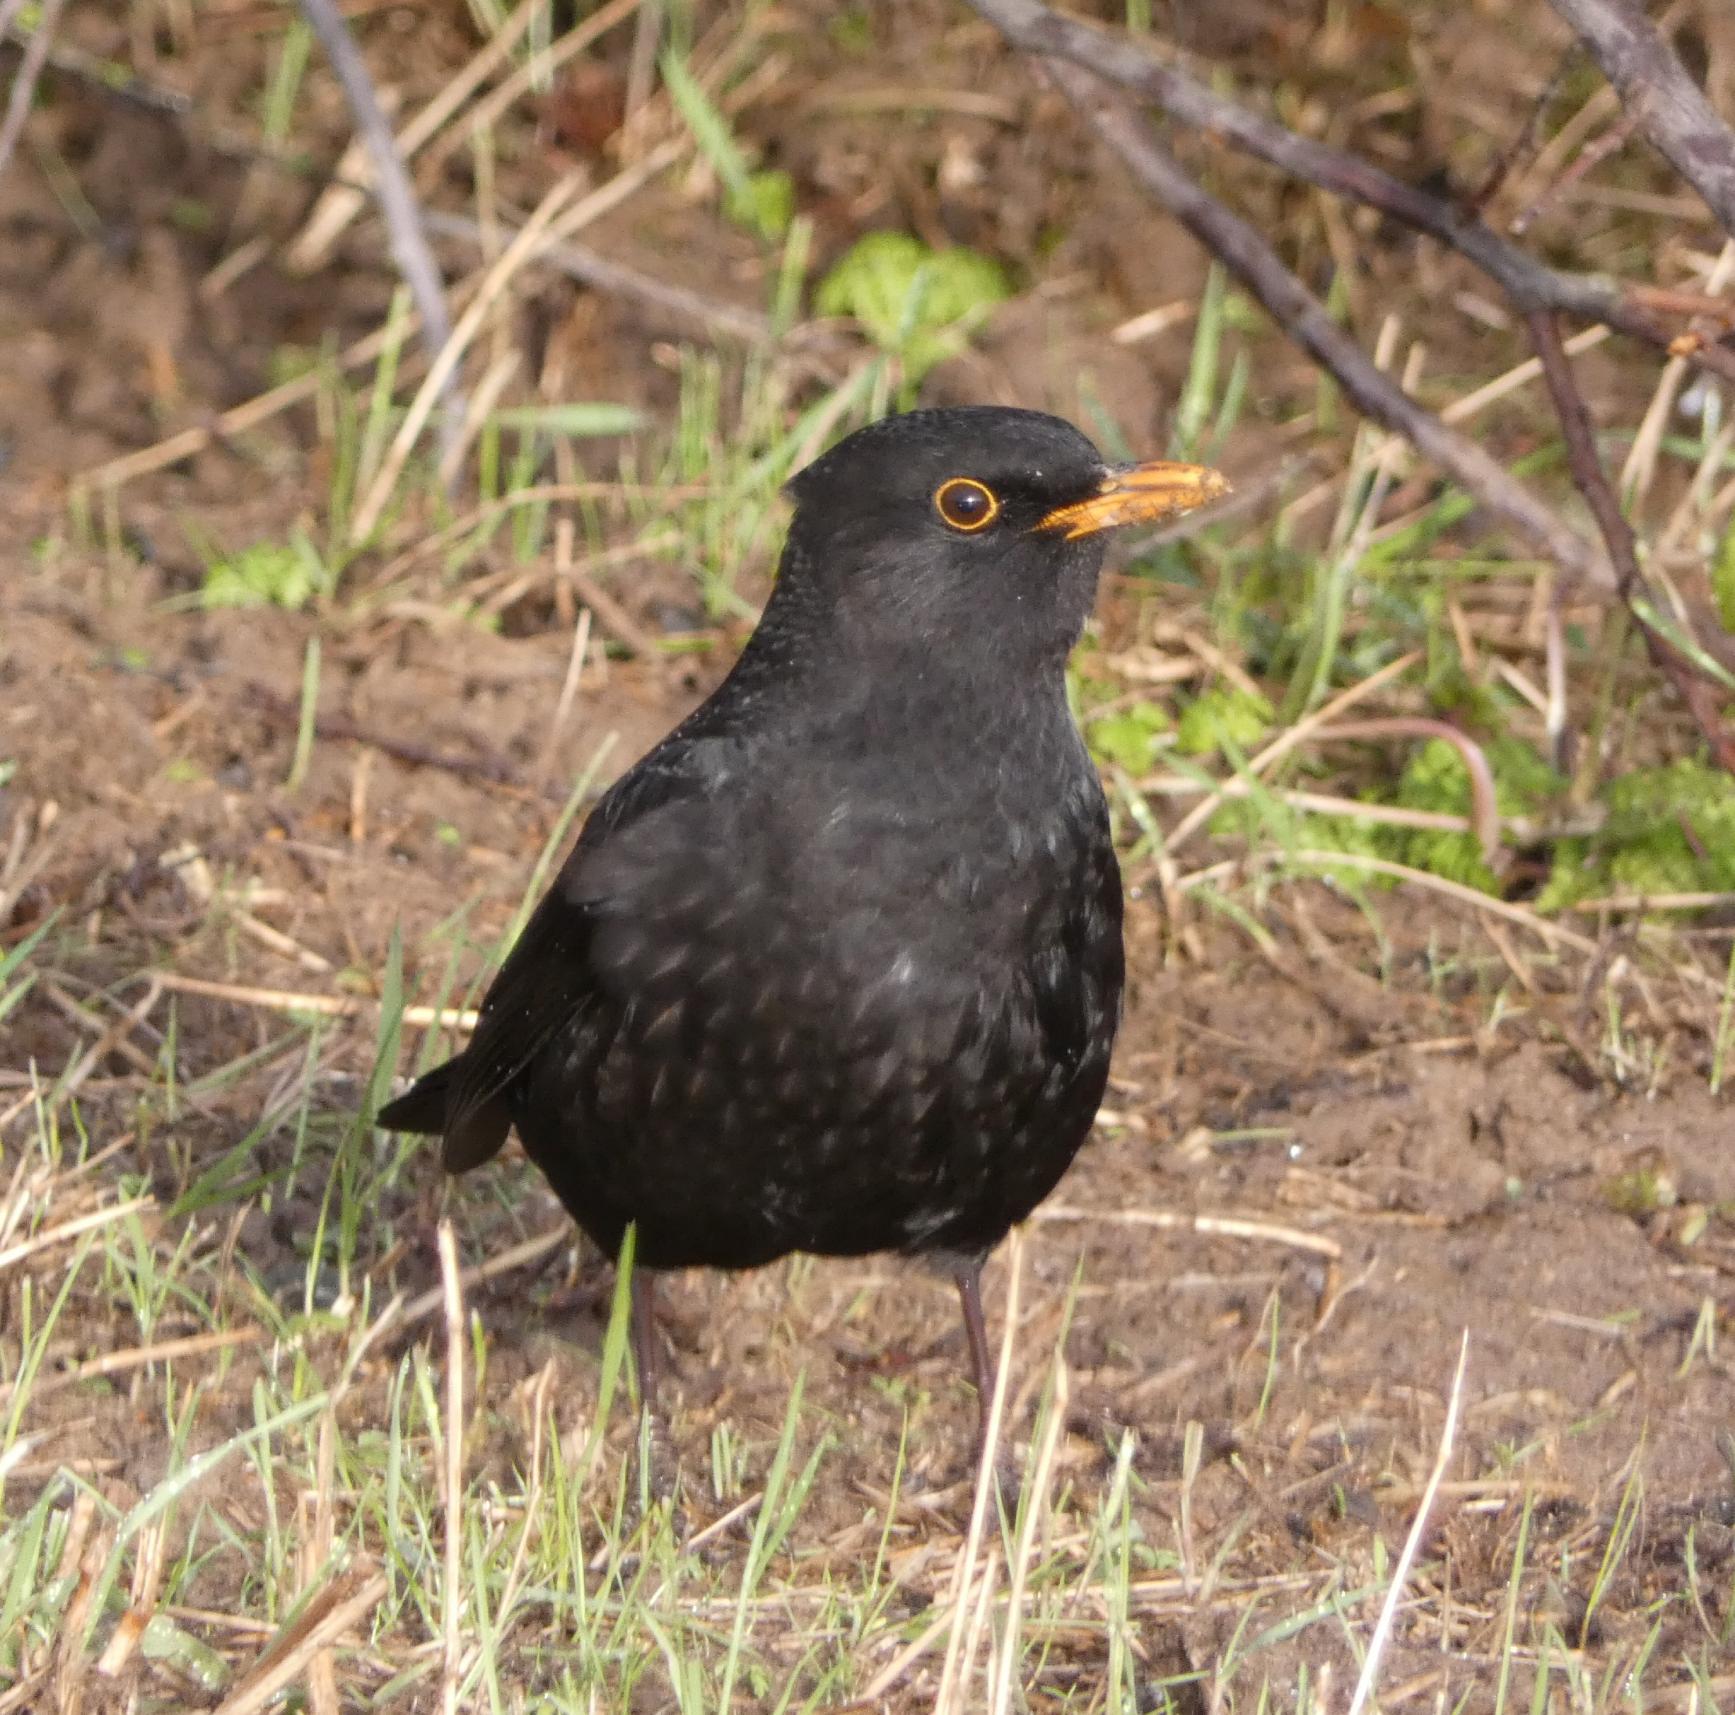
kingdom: Animalia
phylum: Chordata
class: Aves
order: Passeriformes
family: Turdidae
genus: Turdus
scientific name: Turdus merula
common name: Solsort
